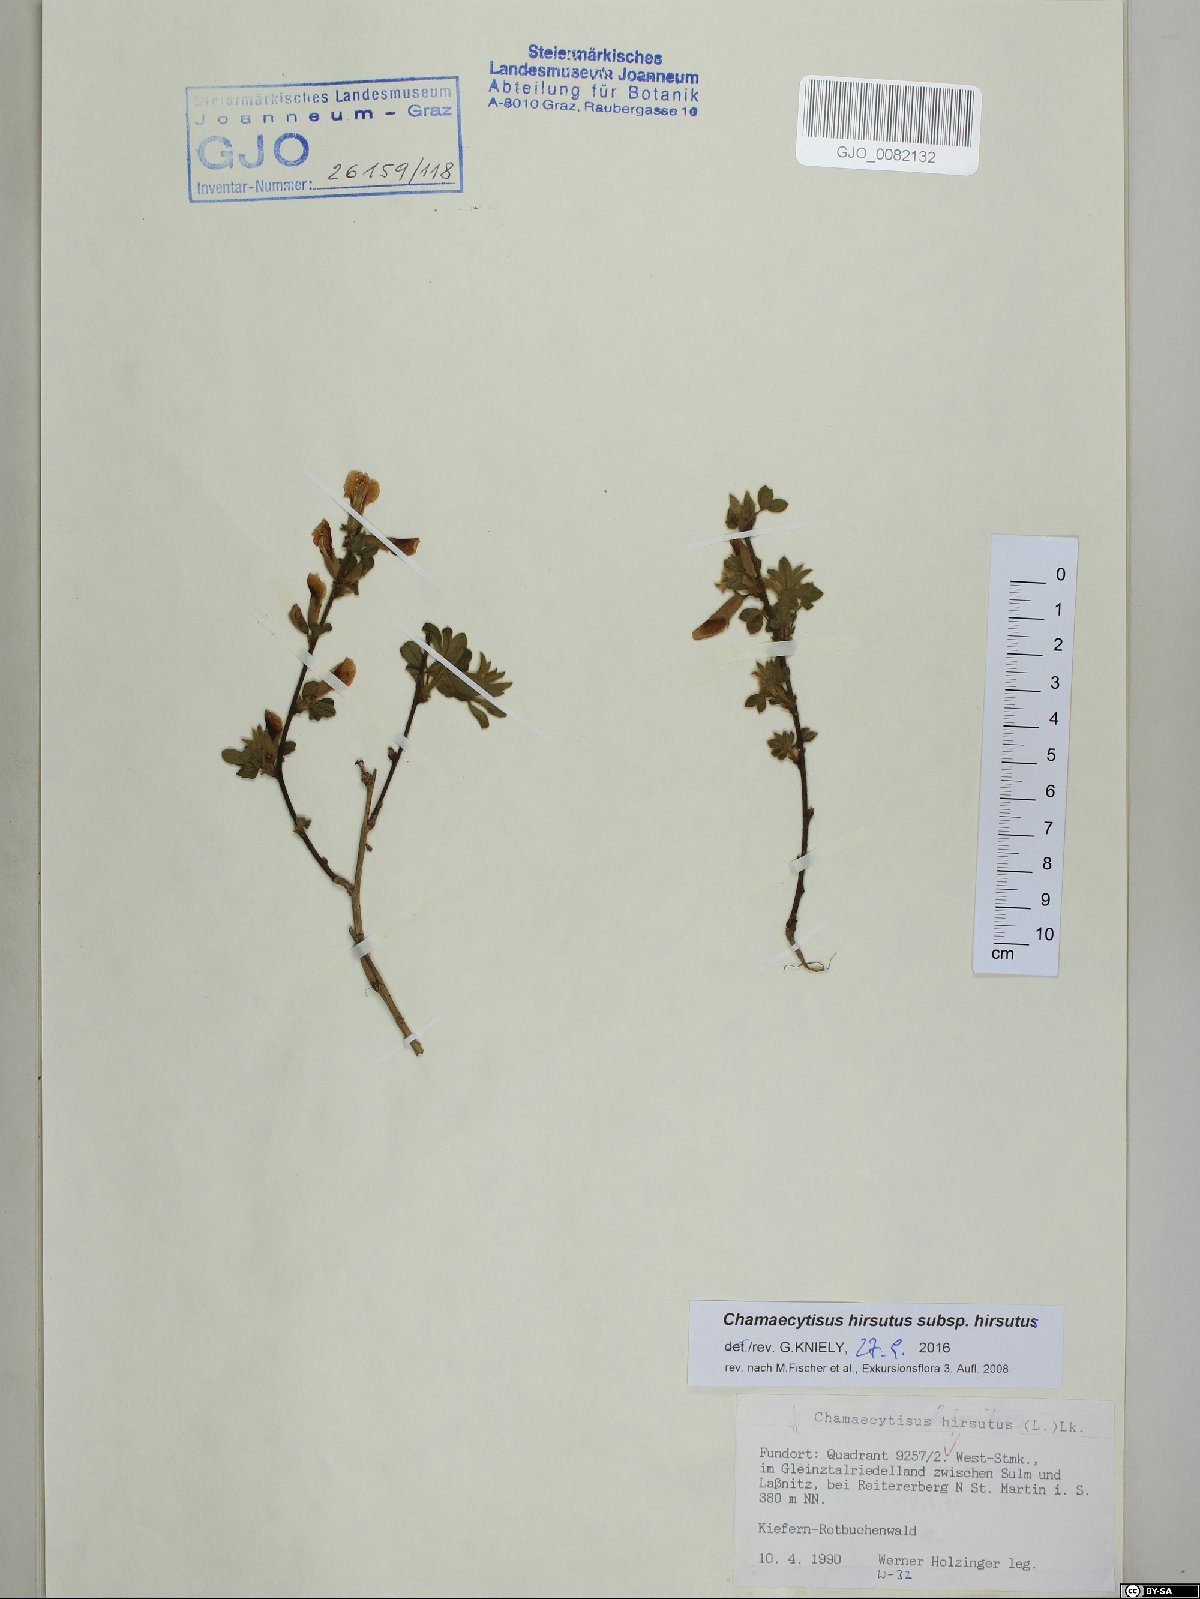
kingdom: Plantae
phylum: Tracheophyta
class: Magnoliopsida
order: Fabales
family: Fabaceae
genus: Chamaecytisus
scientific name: Chamaecytisus hirsutus
